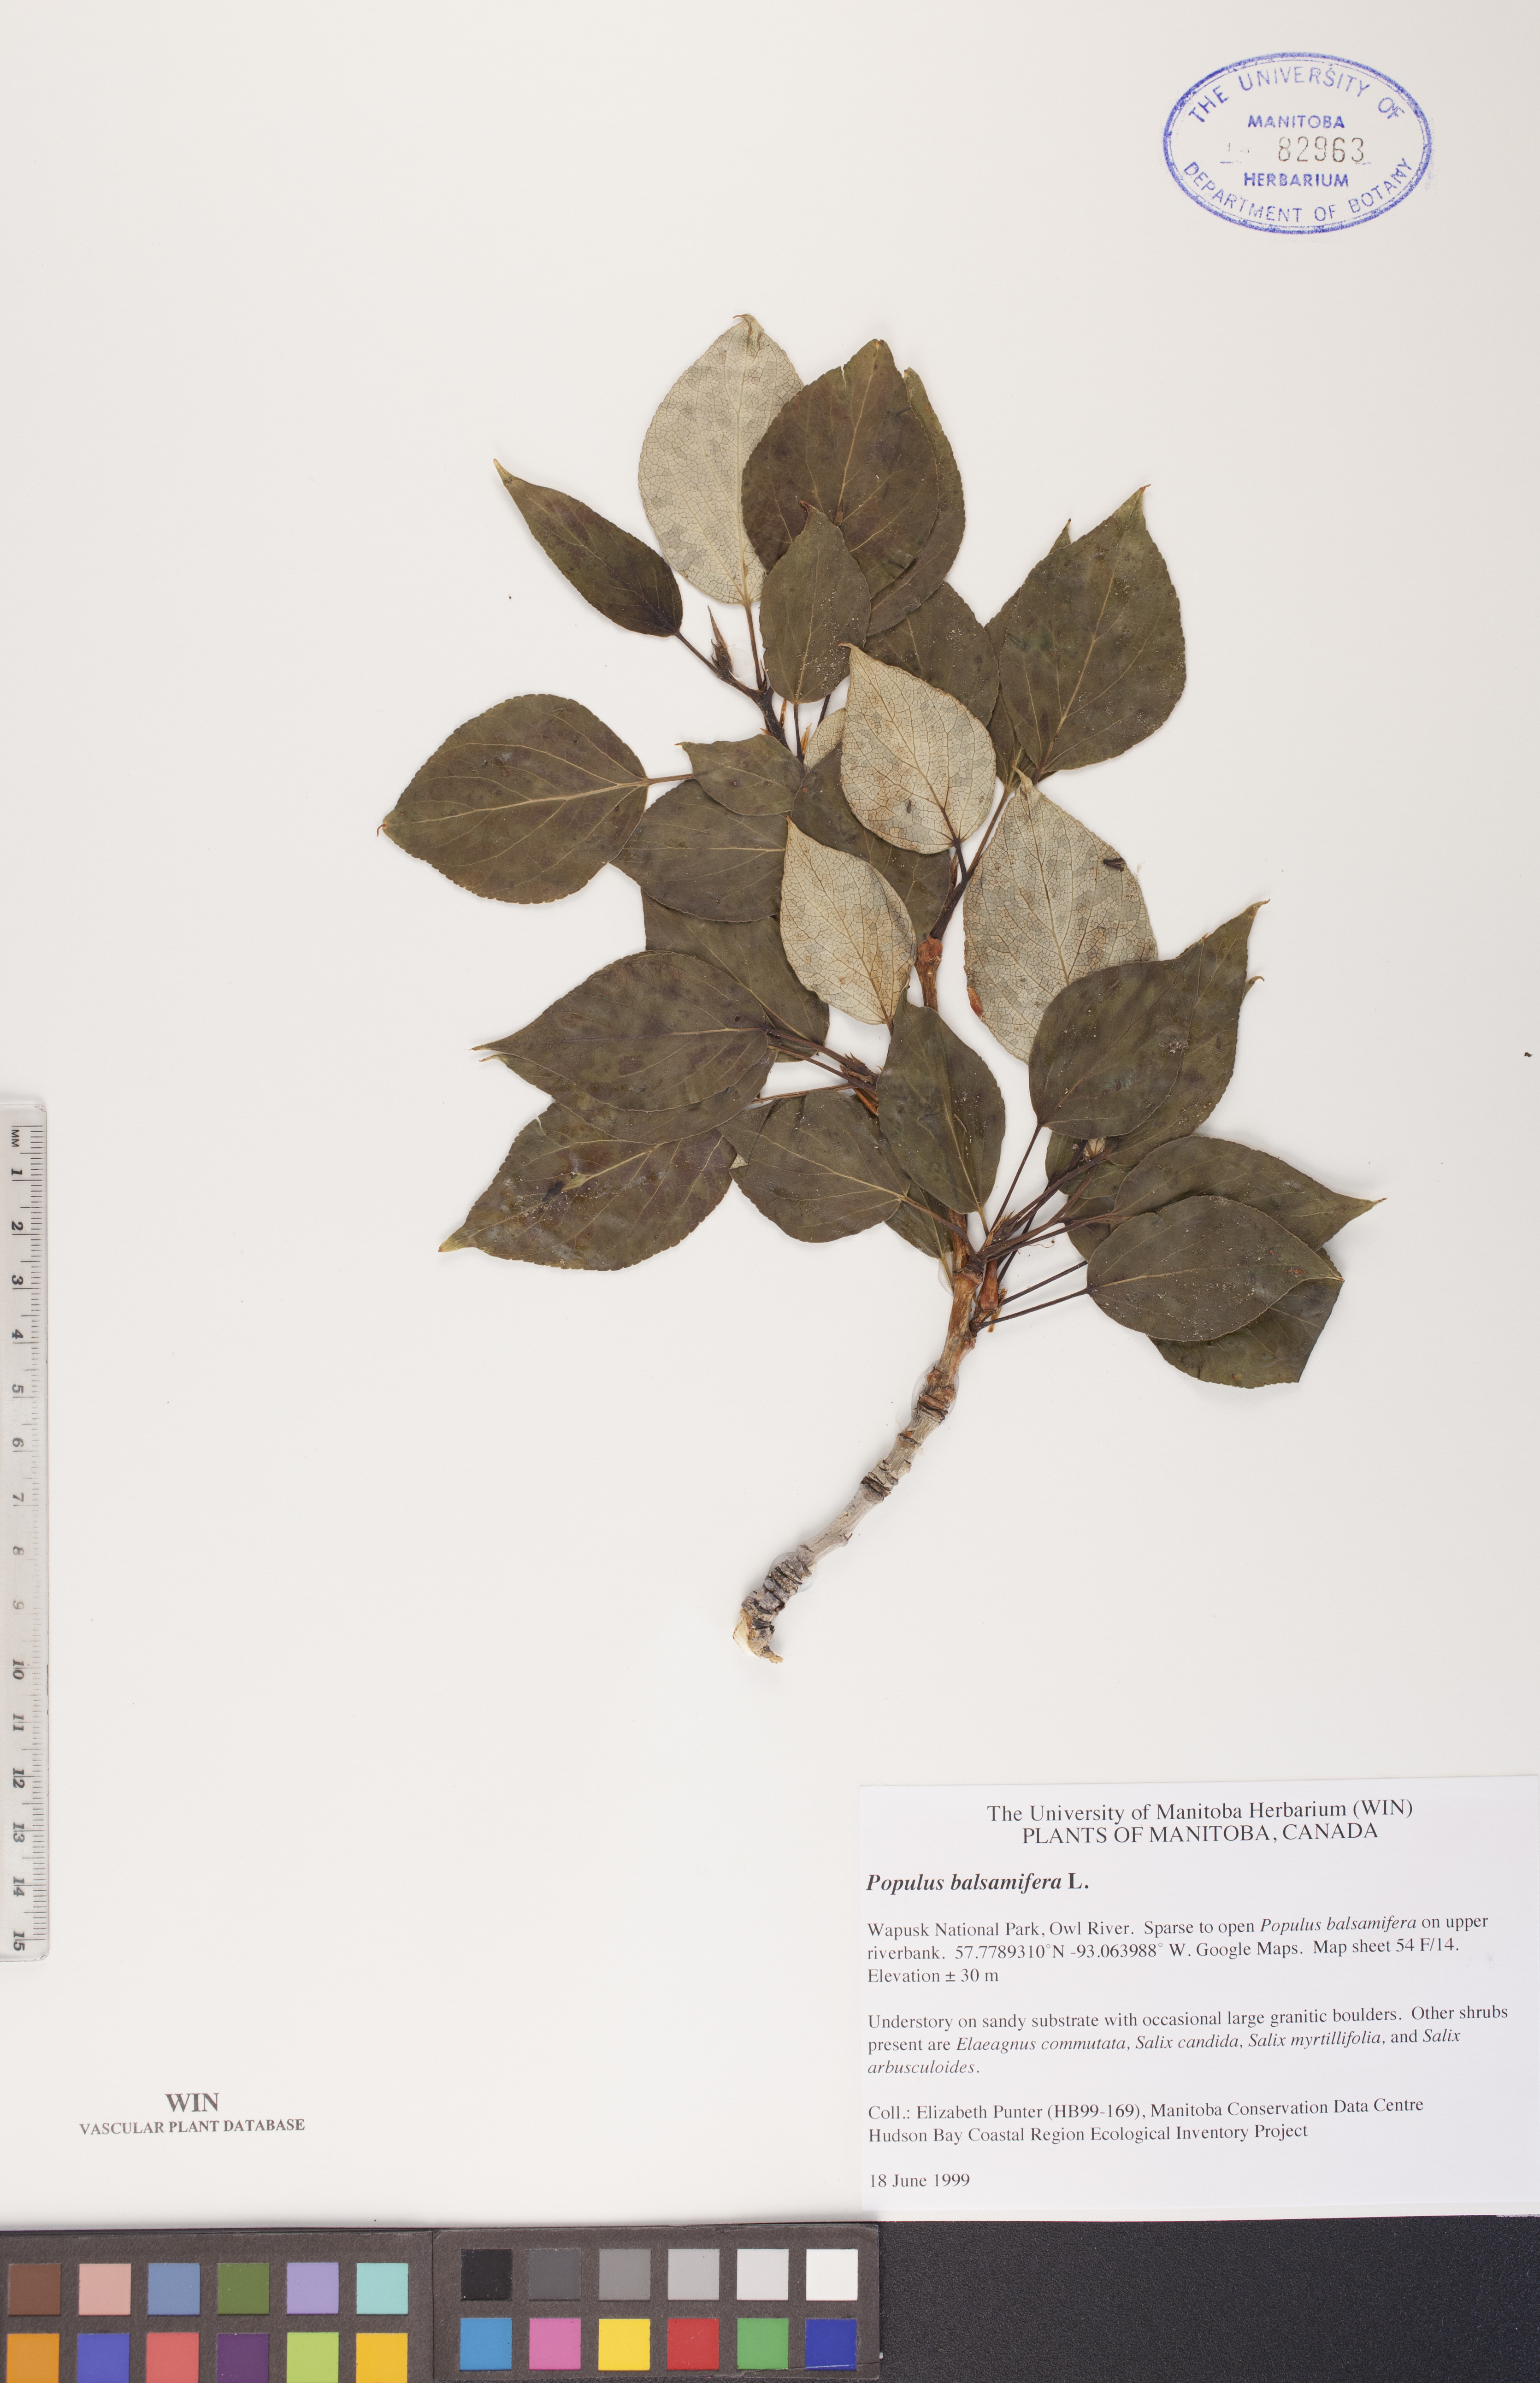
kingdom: Plantae
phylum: Tracheophyta
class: Magnoliopsida
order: Malpighiales
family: Salicaceae
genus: Populus
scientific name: Populus balsamifera
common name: Balsam poplar
